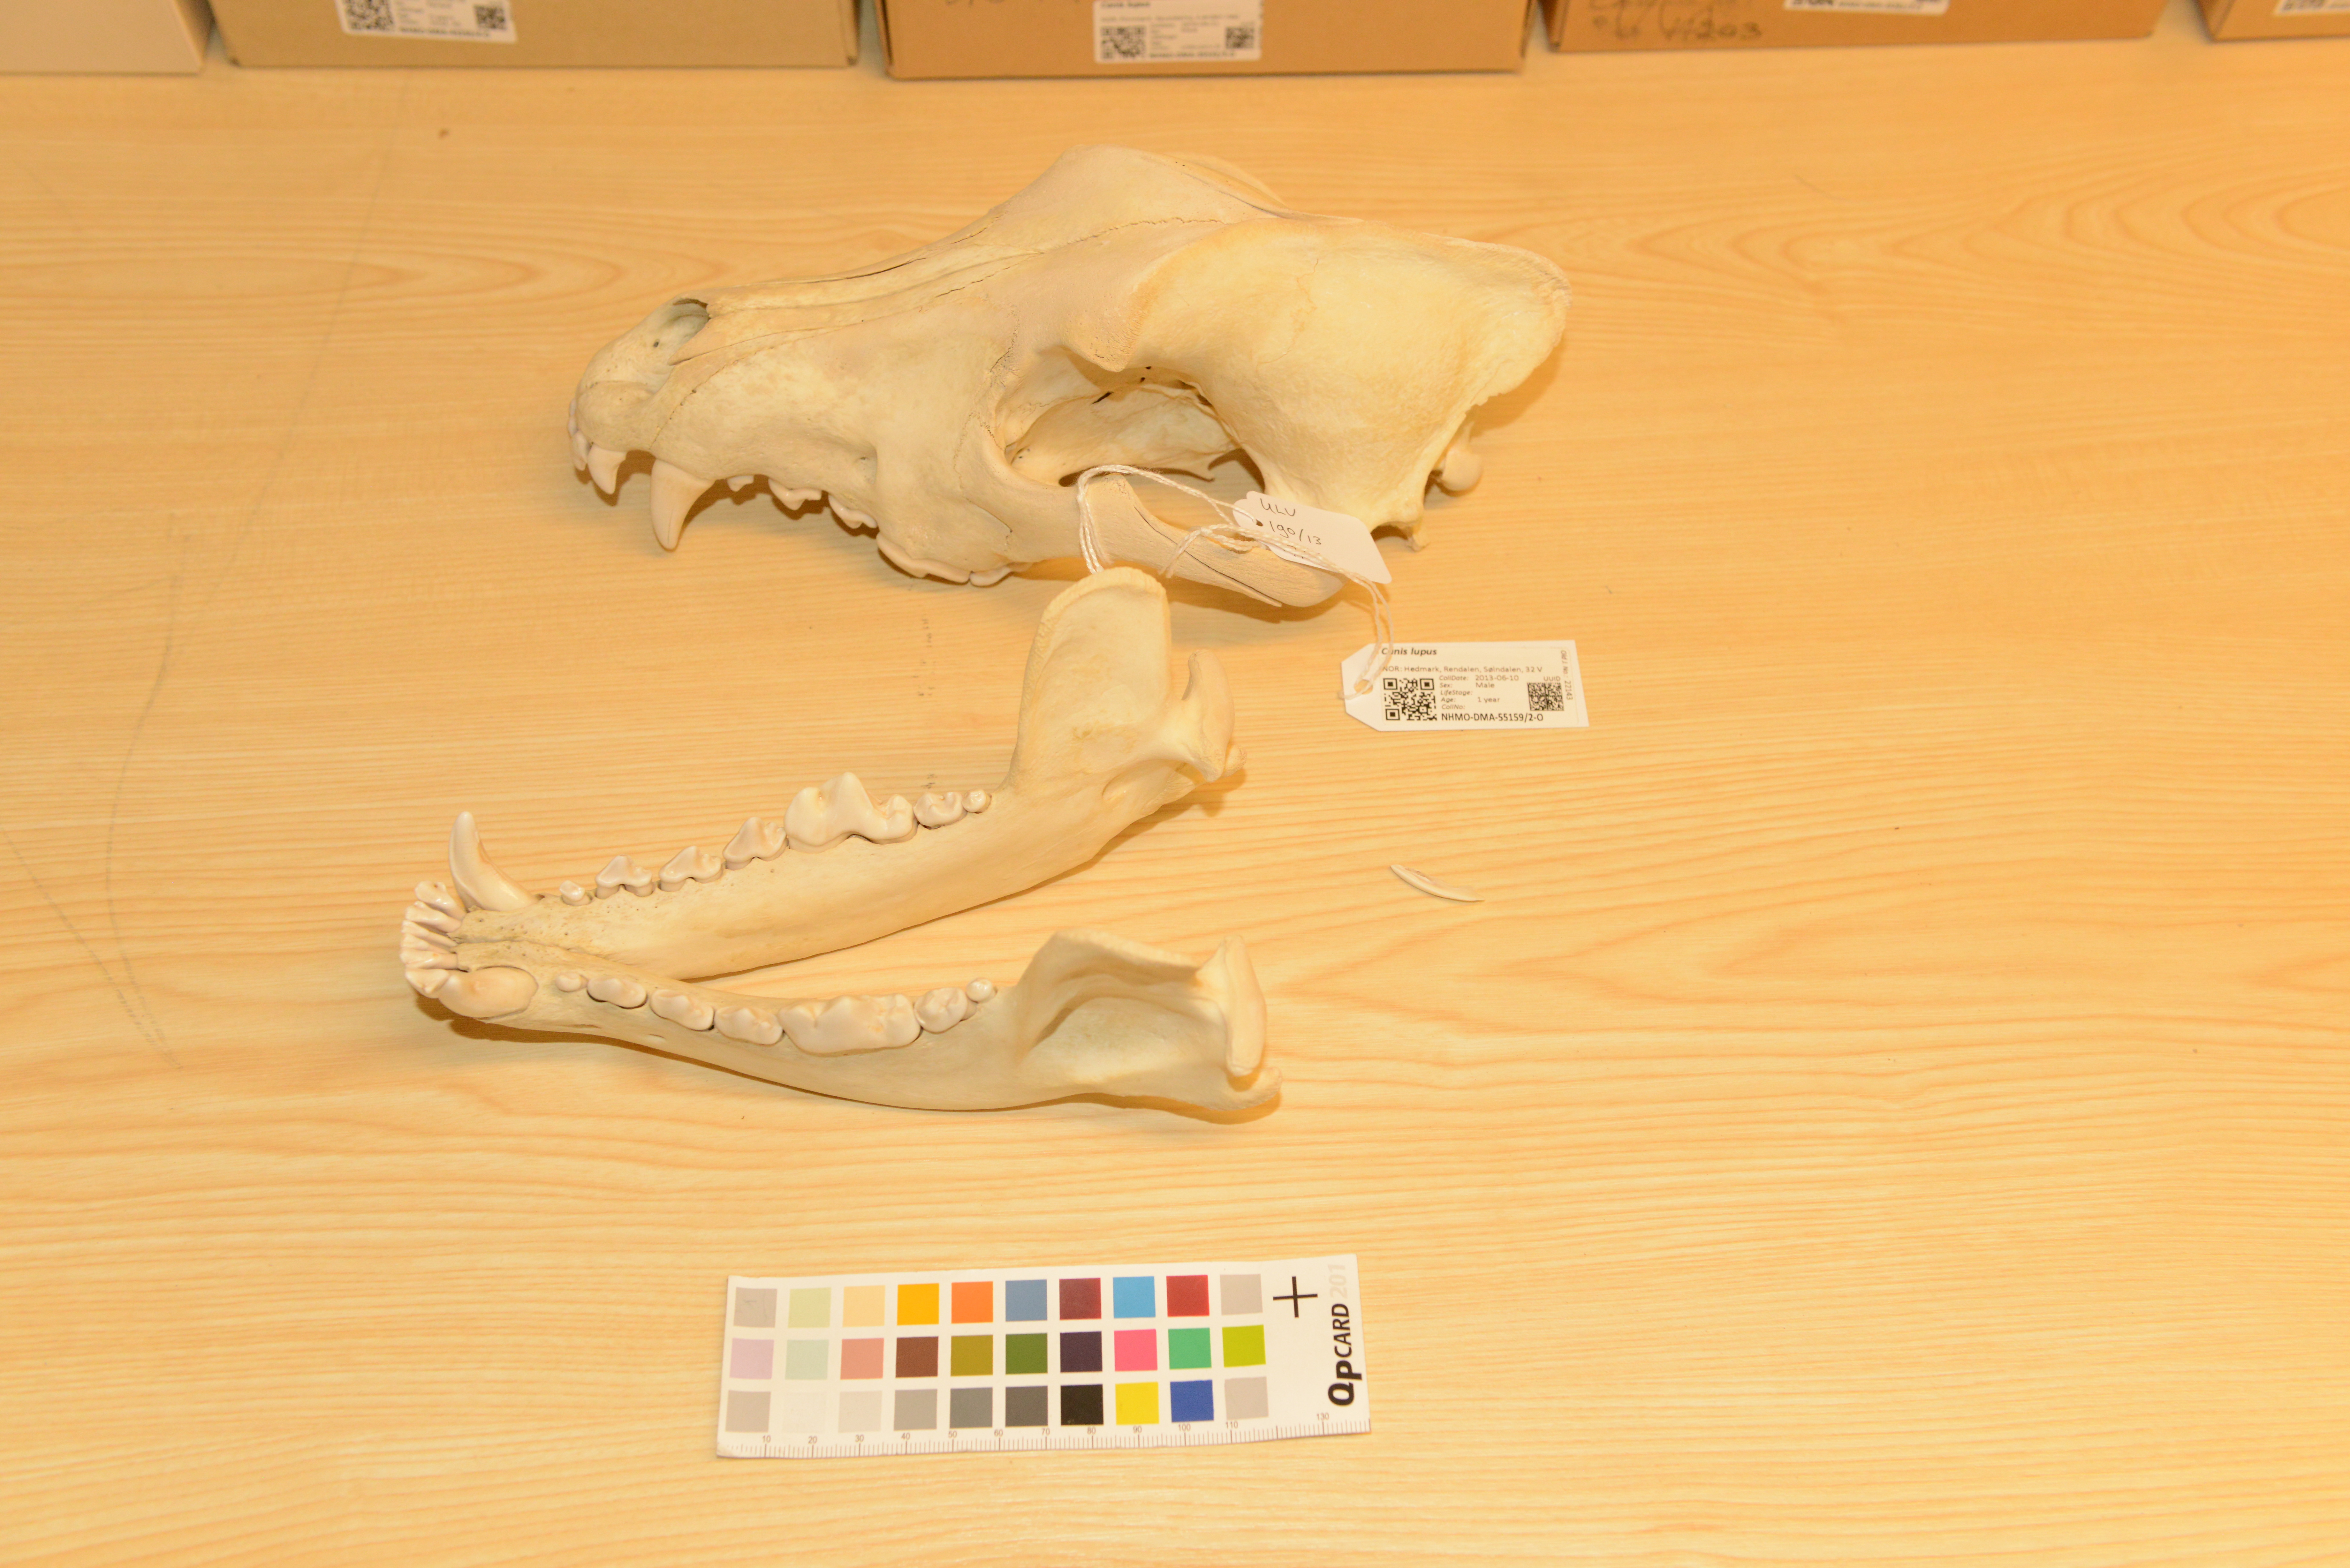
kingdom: Animalia
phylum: Chordata
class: Mammalia
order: Carnivora
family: Canidae
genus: Canis
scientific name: Canis lupus
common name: Gray wolf
